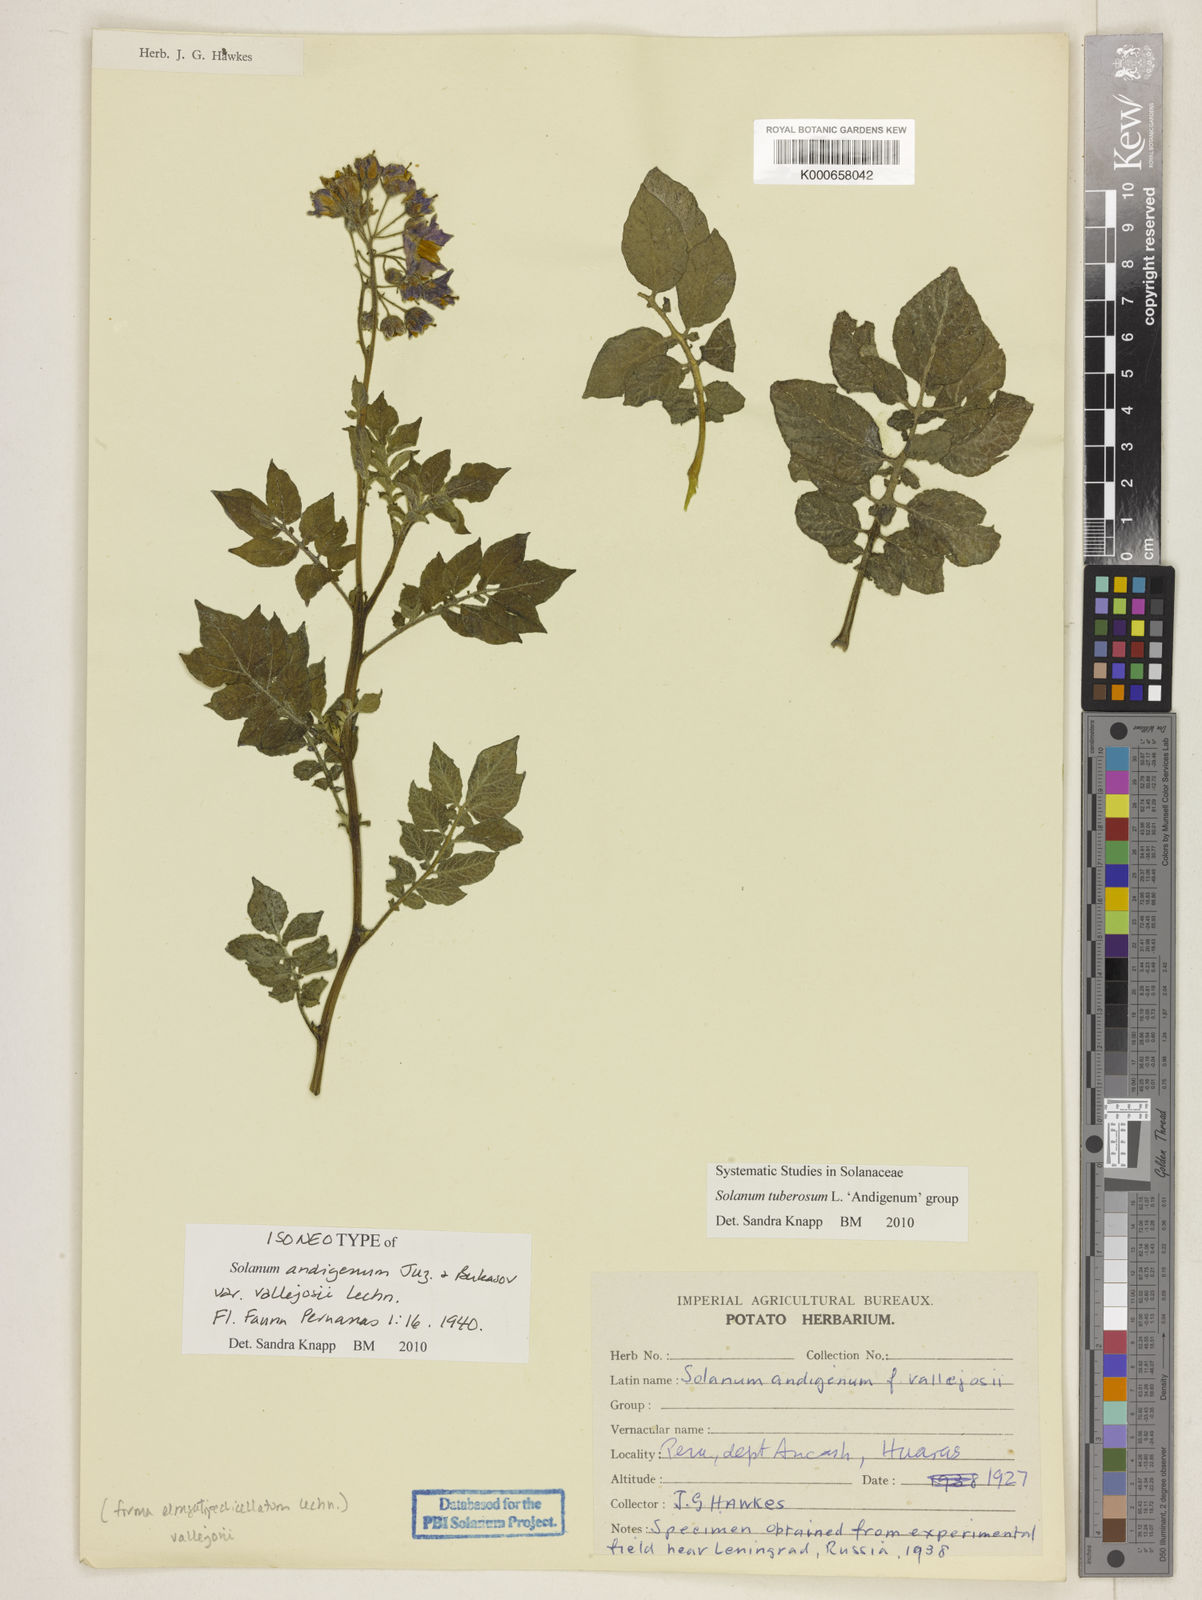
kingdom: Plantae
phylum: Tracheophyta
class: Magnoliopsida
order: Solanales
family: Solanaceae
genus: Solanum
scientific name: Solanum tuberosum
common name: Potato
